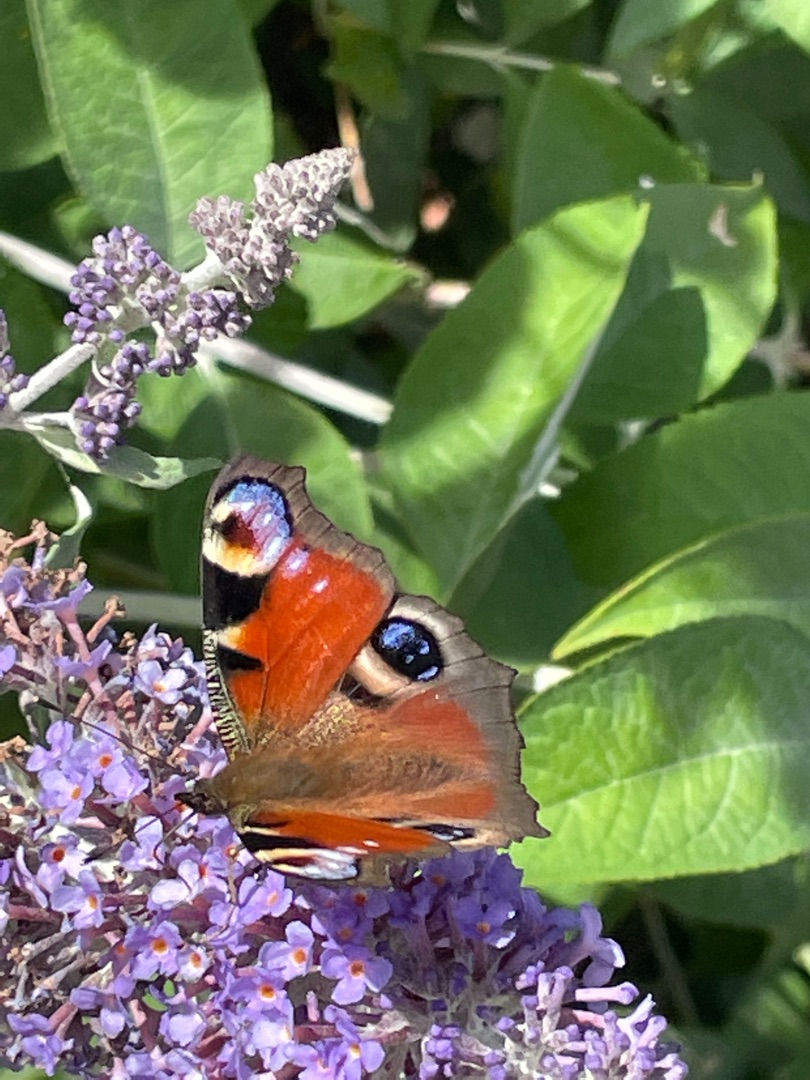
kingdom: Animalia
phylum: Arthropoda
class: Insecta
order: Lepidoptera
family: Nymphalidae
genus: Aglais
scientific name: Aglais io
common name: Dagpåfugleøje
